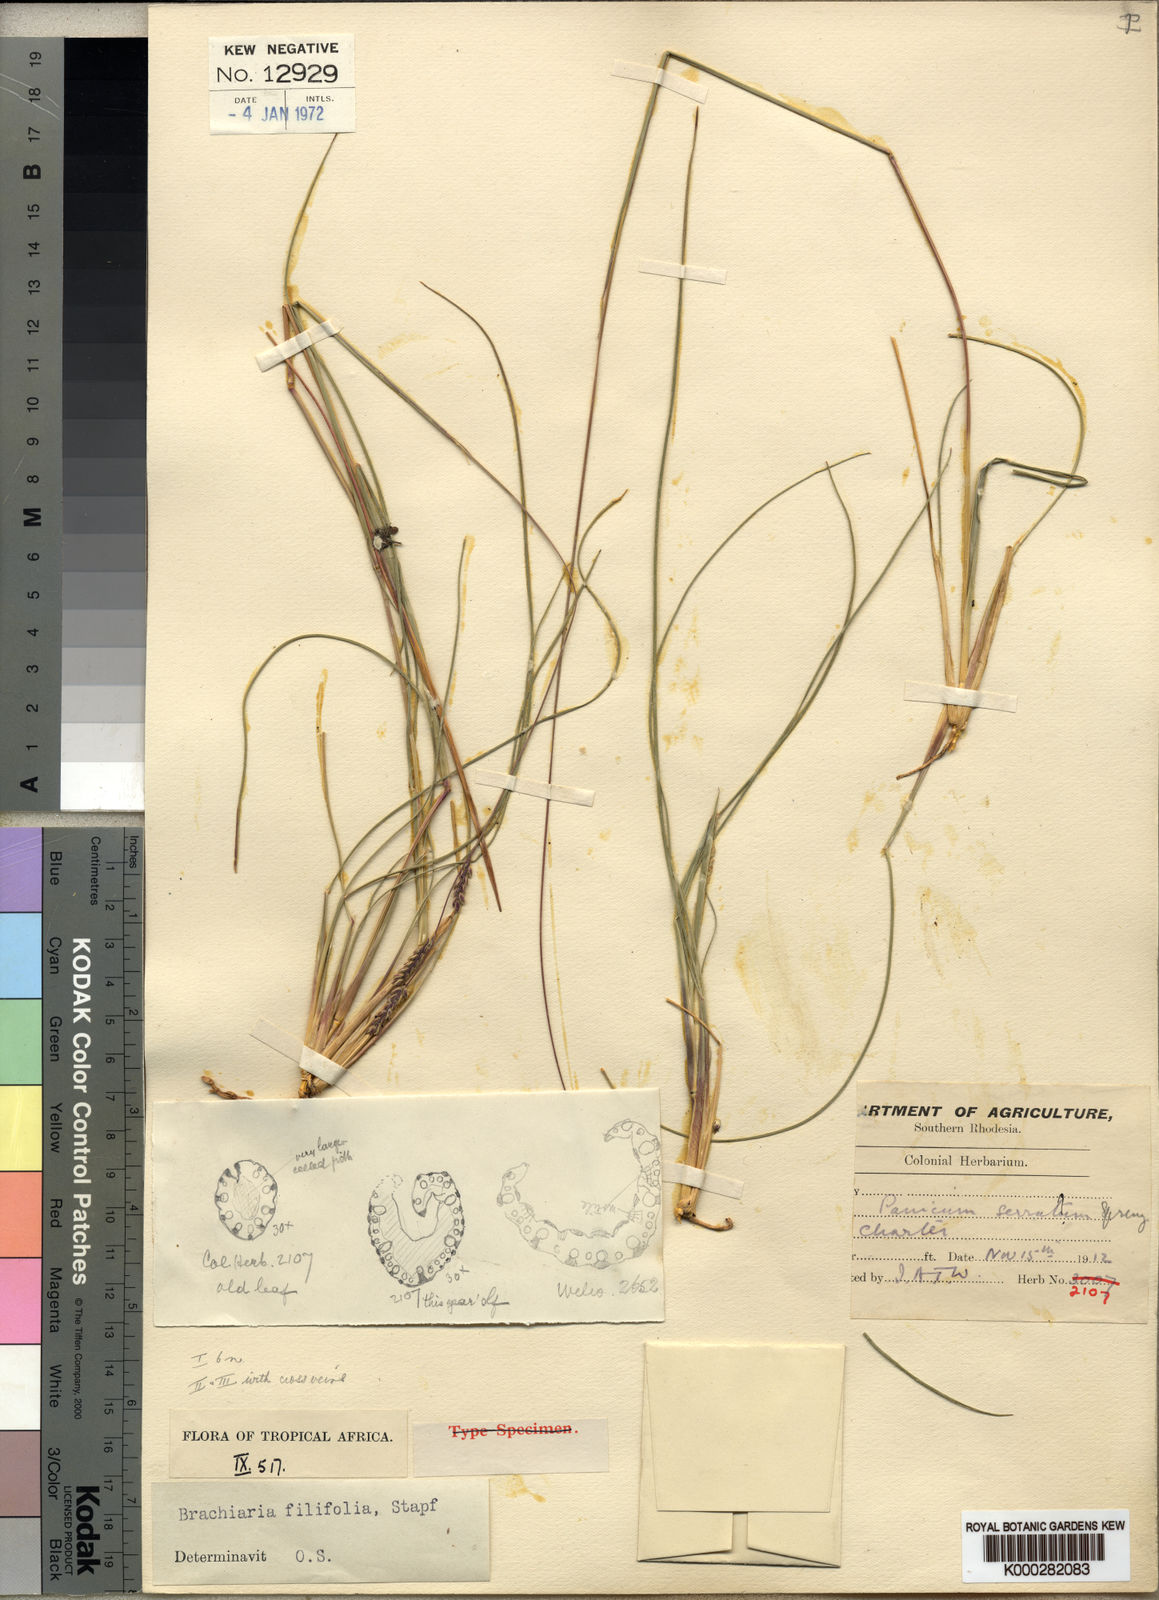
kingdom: Plantae
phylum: Tracheophyta
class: Liliopsida
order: Poales
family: Poaceae
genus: Urochloa
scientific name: Urochloa subulifolia
